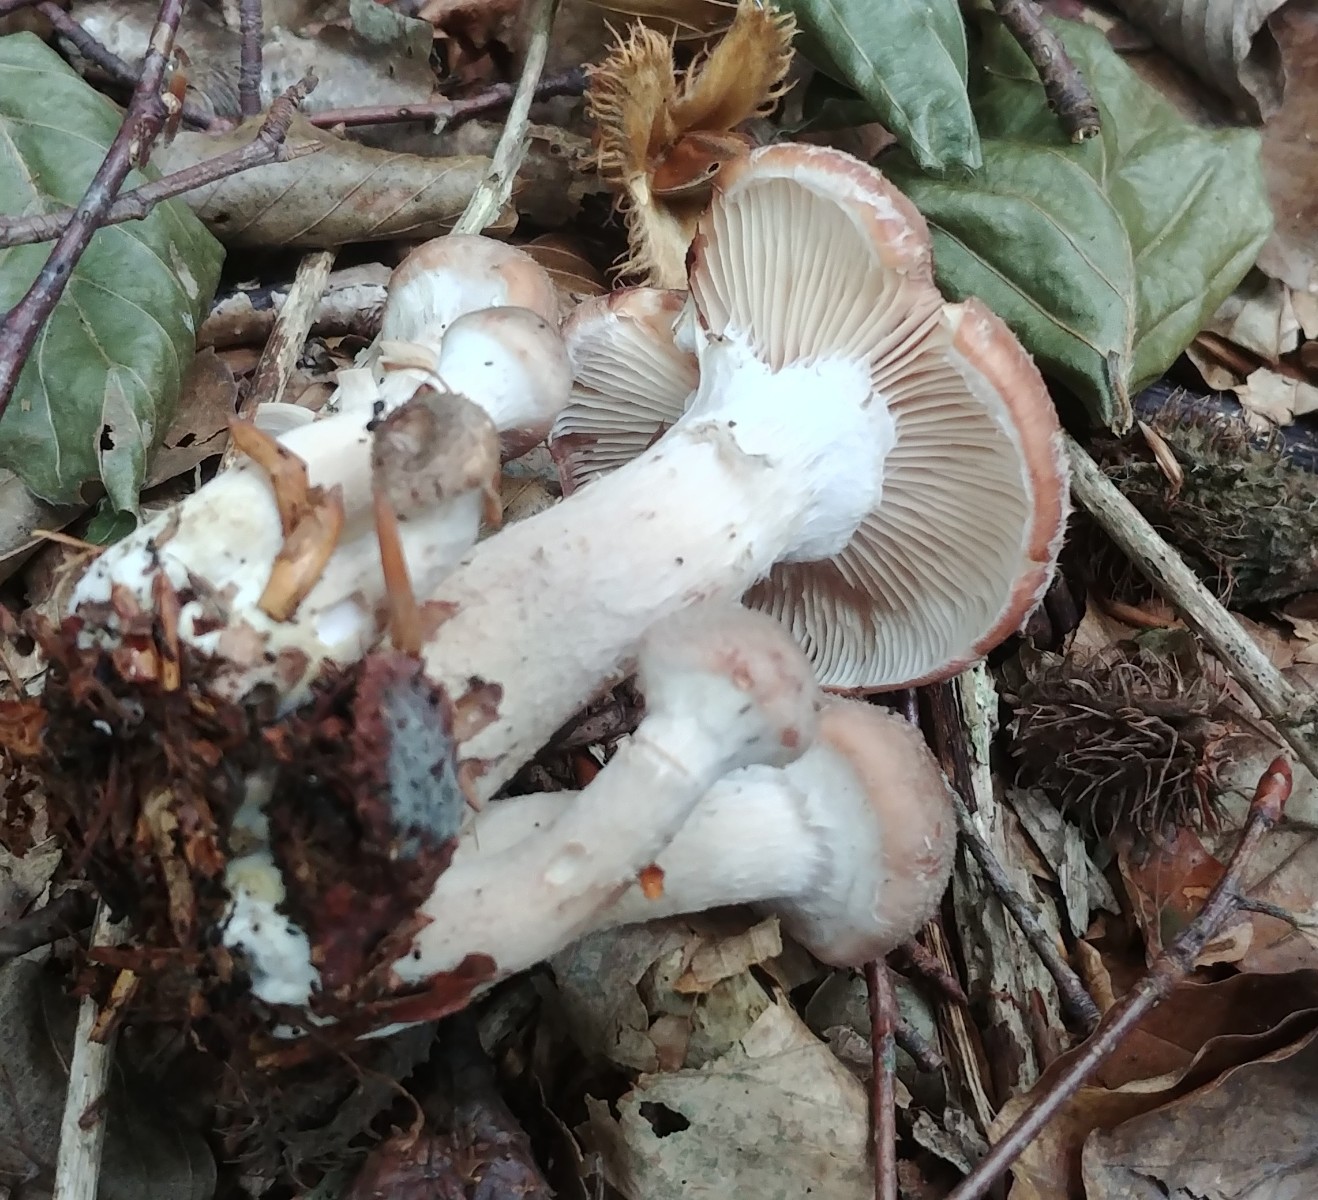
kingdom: Fungi
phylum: Basidiomycota
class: Agaricomycetes
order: Agaricales
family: Physalacriaceae
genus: Armillaria
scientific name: Armillaria lutea
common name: køllestokket honningsvamp
